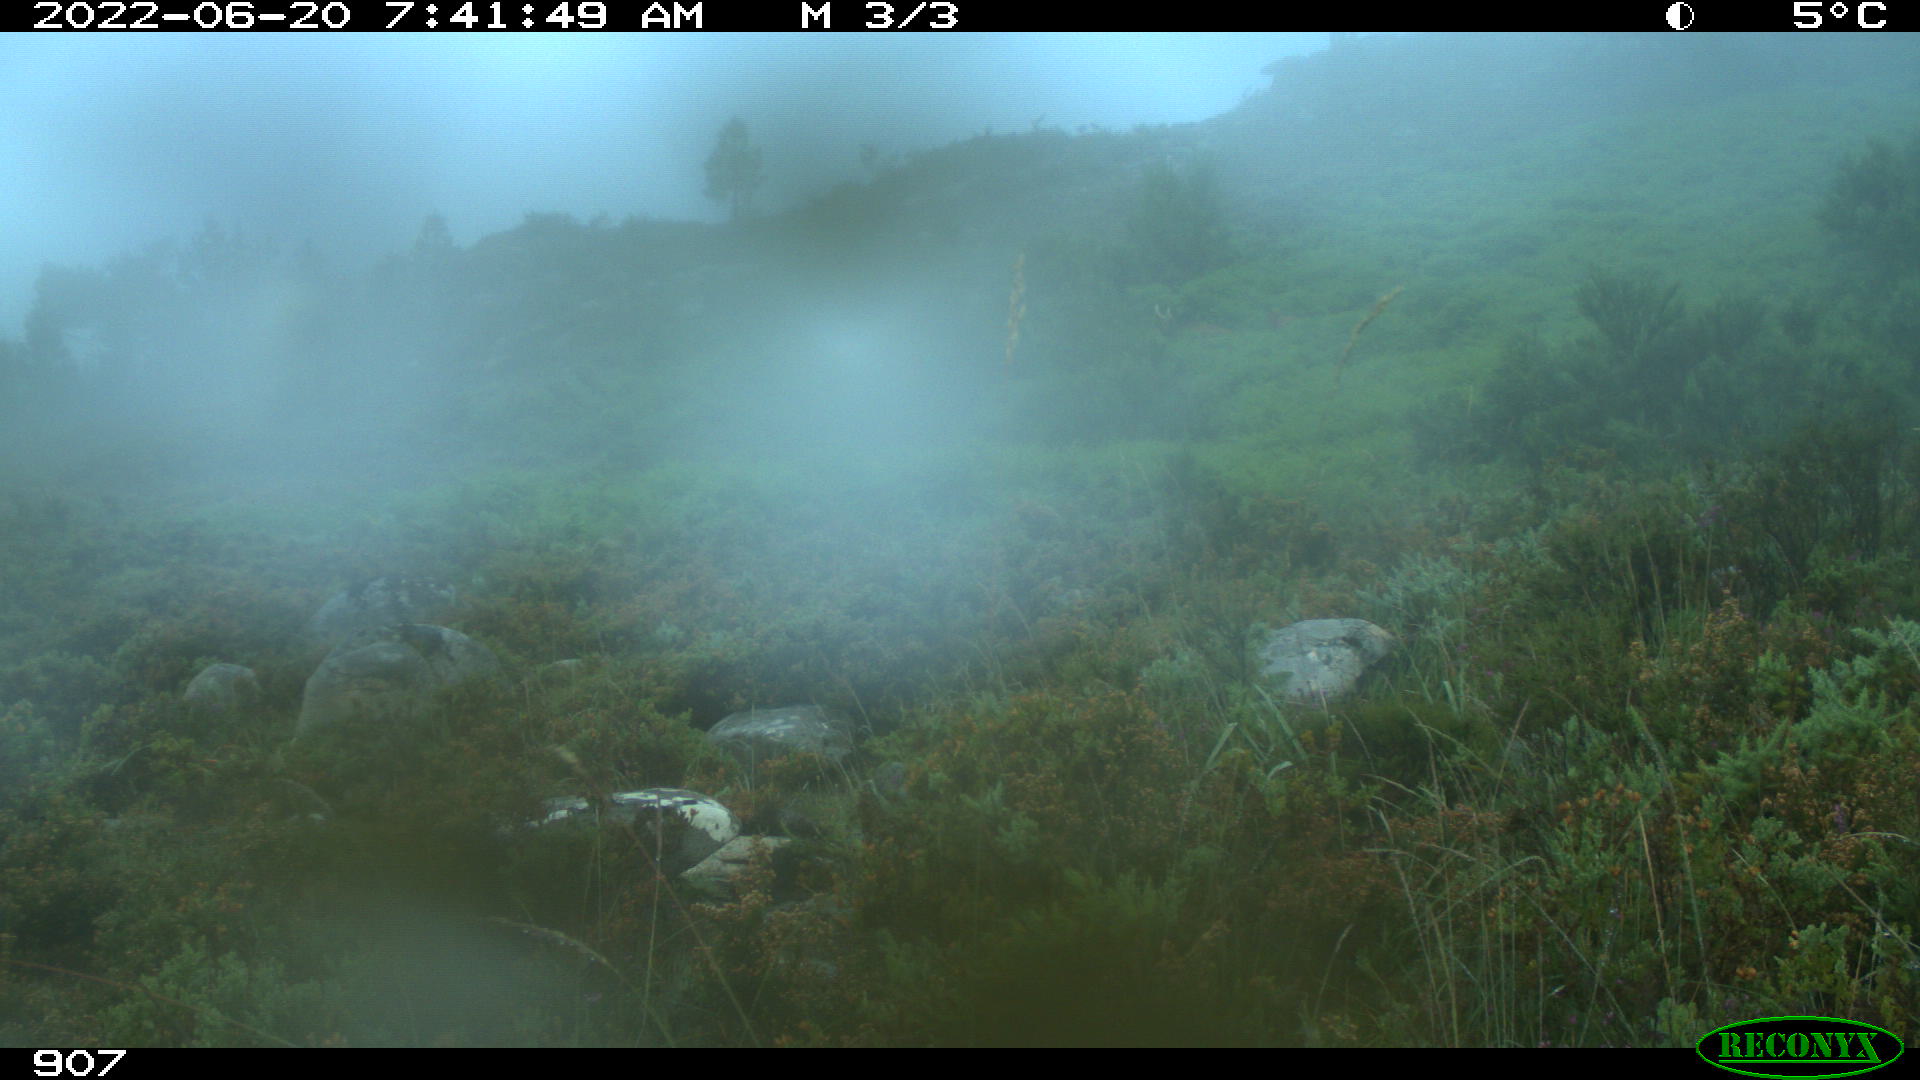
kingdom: Animalia
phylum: Chordata
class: Mammalia
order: Artiodactyla
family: Bovidae
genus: Bos
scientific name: Bos taurus
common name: Domesticated cattle
